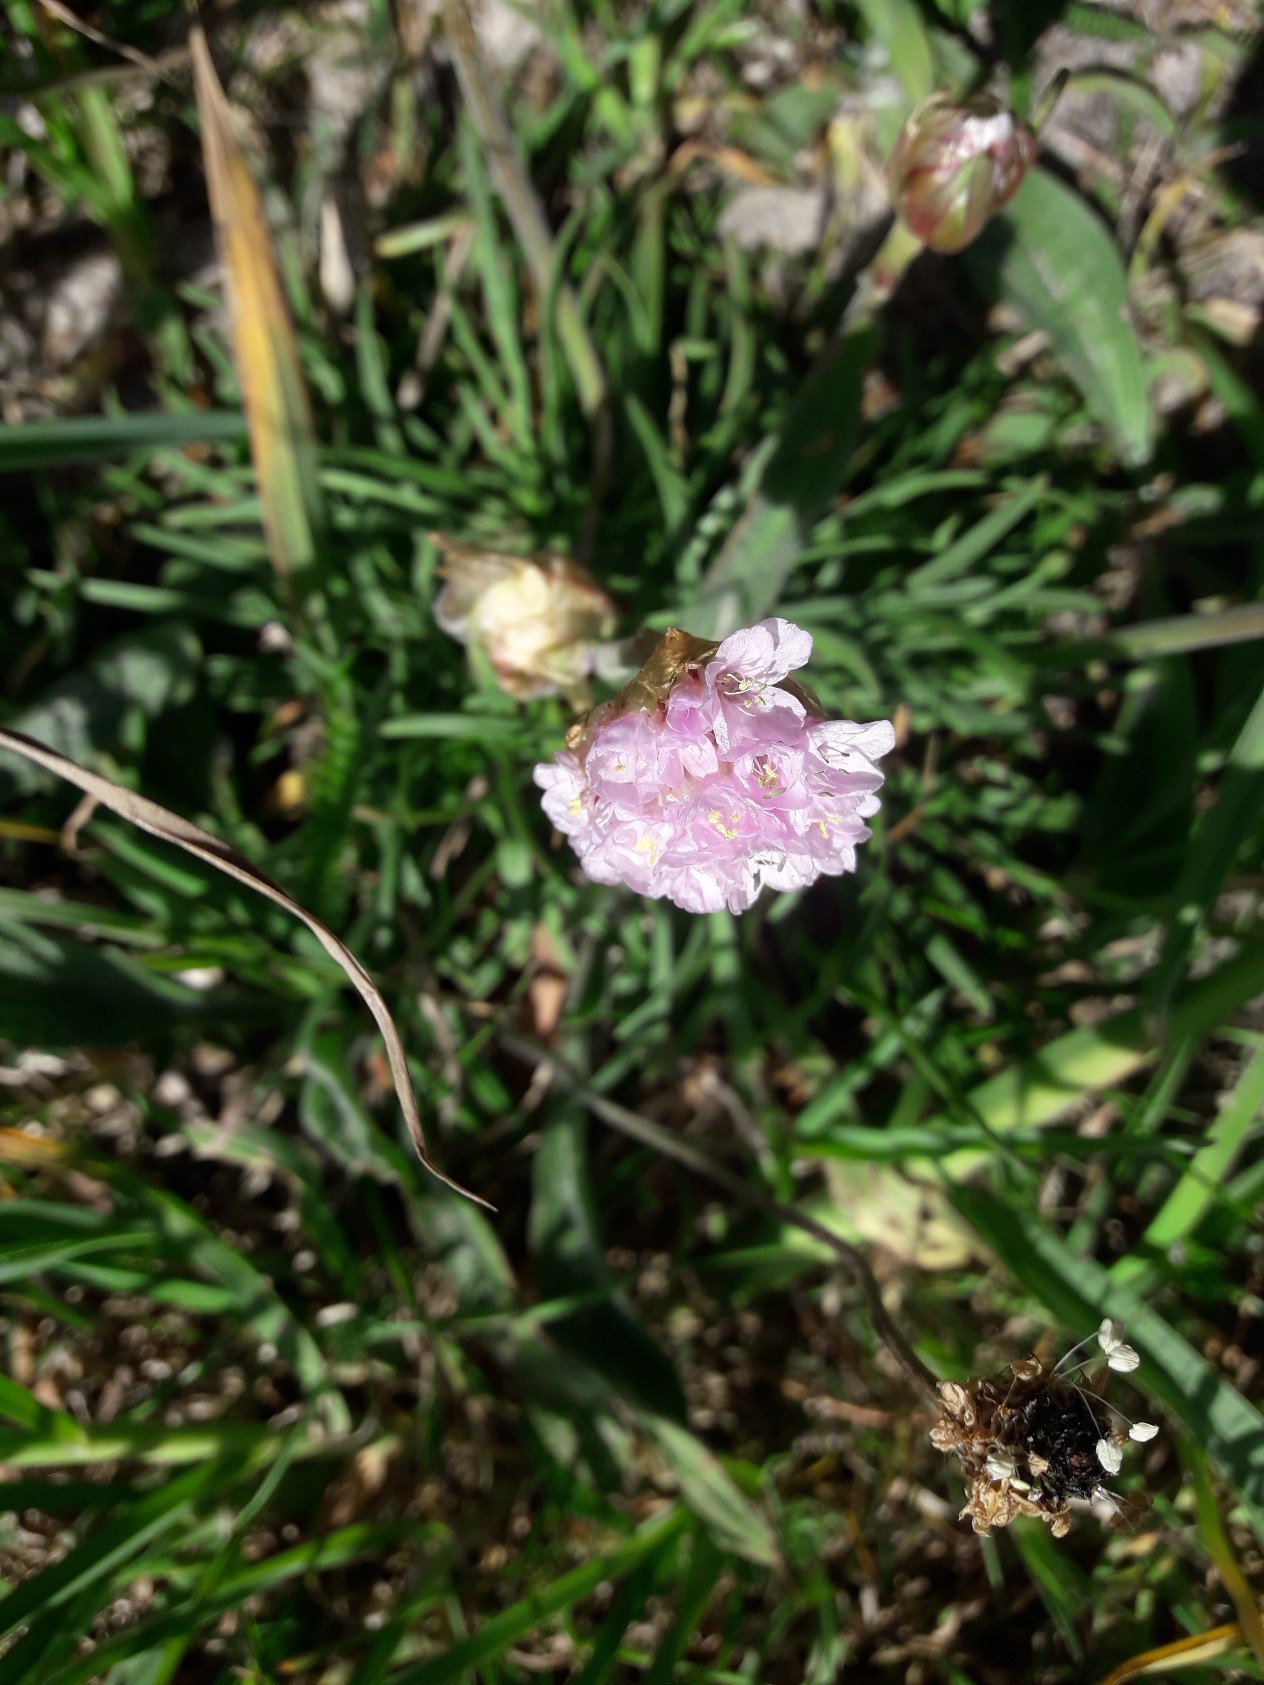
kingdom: Plantae
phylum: Tracheophyta
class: Magnoliopsida
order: Caryophyllales
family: Plumbaginaceae
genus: Armeria
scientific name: Armeria maritima
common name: Strand-engelskgræs
